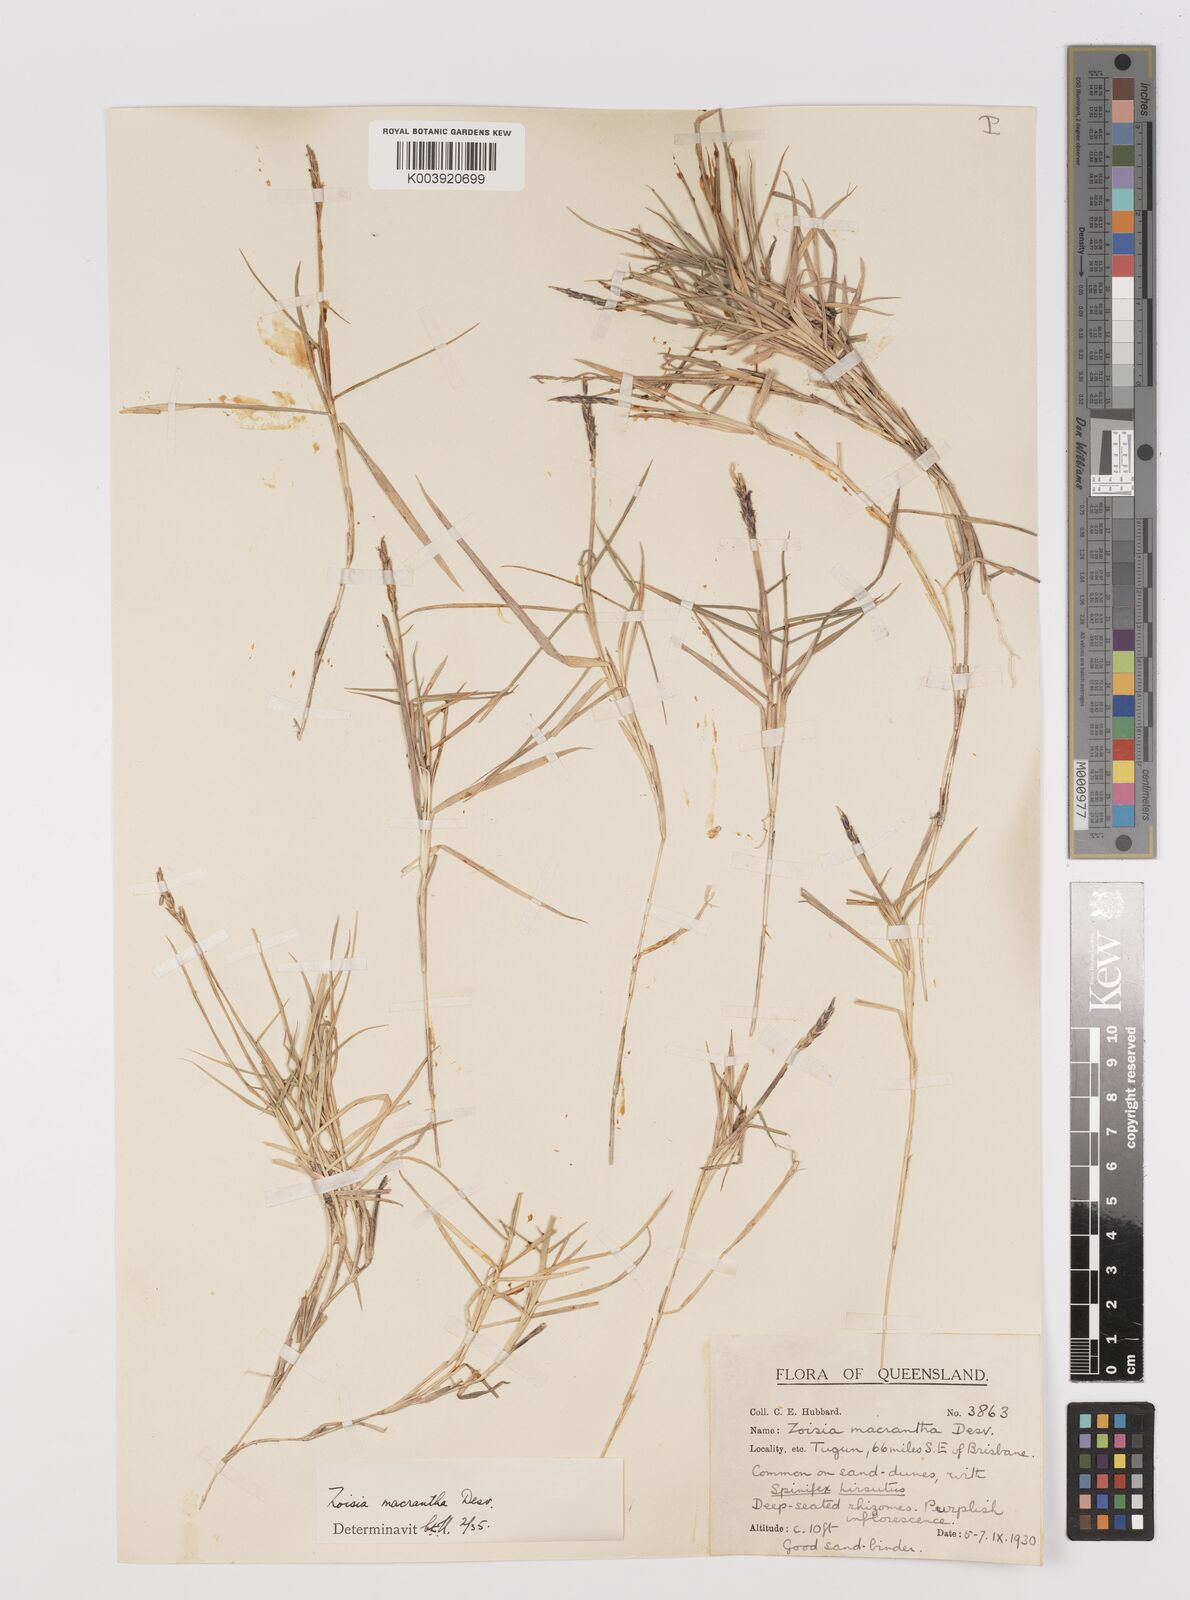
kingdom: Plantae
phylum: Tracheophyta
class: Liliopsida
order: Poales
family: Poaceae
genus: Zoysia
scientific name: Zoysia macrantha
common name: Korean lawn grass
